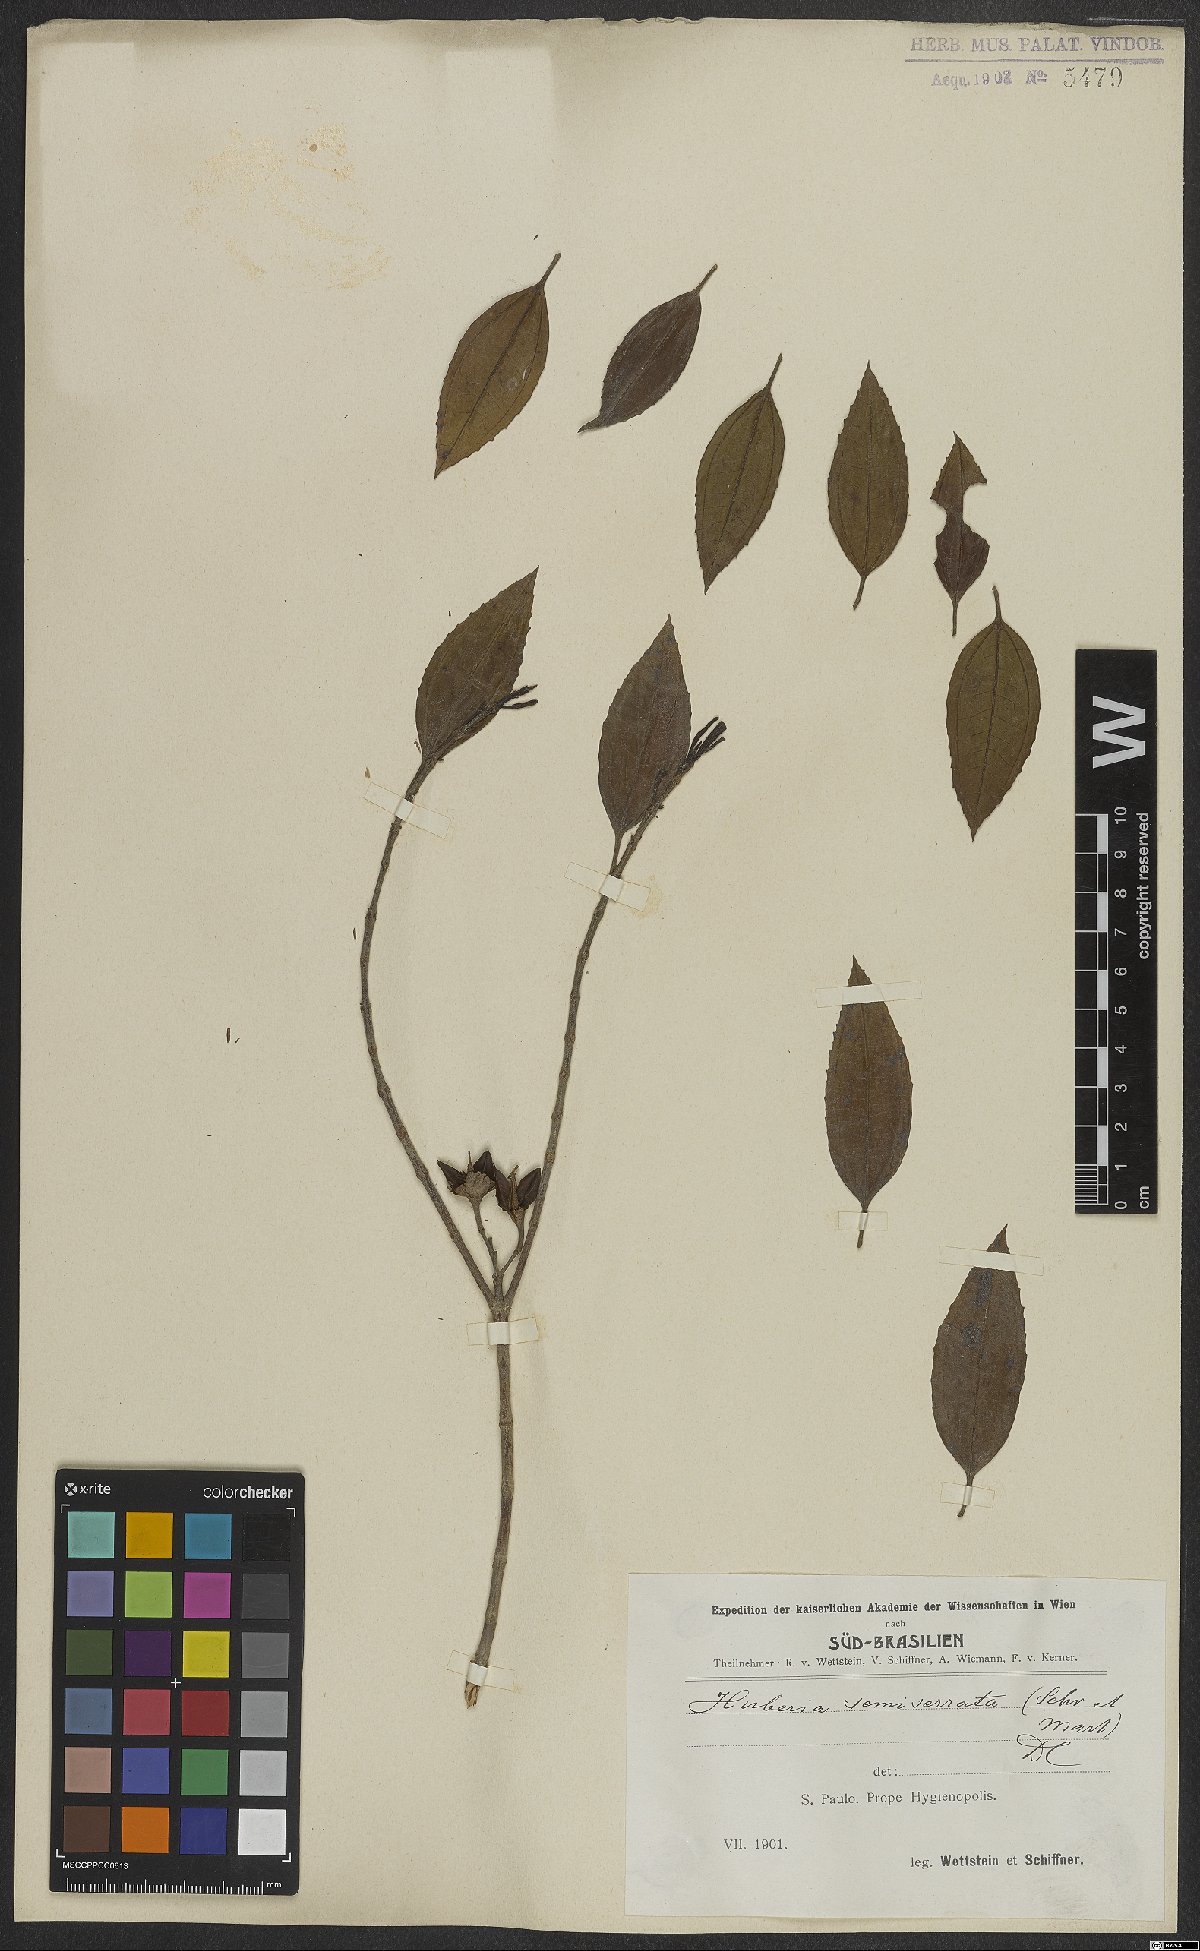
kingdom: Plantae
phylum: Tracheophyta
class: Magnoliopsida
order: Myrtales
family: Melastomataceae
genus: Huberia
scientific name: Huberia semiserrata
